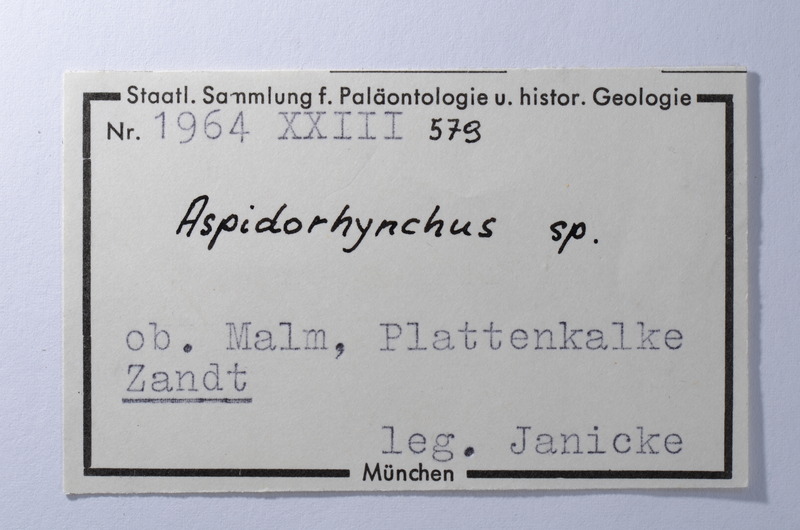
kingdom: Animalia
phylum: Chordata
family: Aspidorhynchidae
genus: Aspidorhynchus
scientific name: Aspidorhynchus
